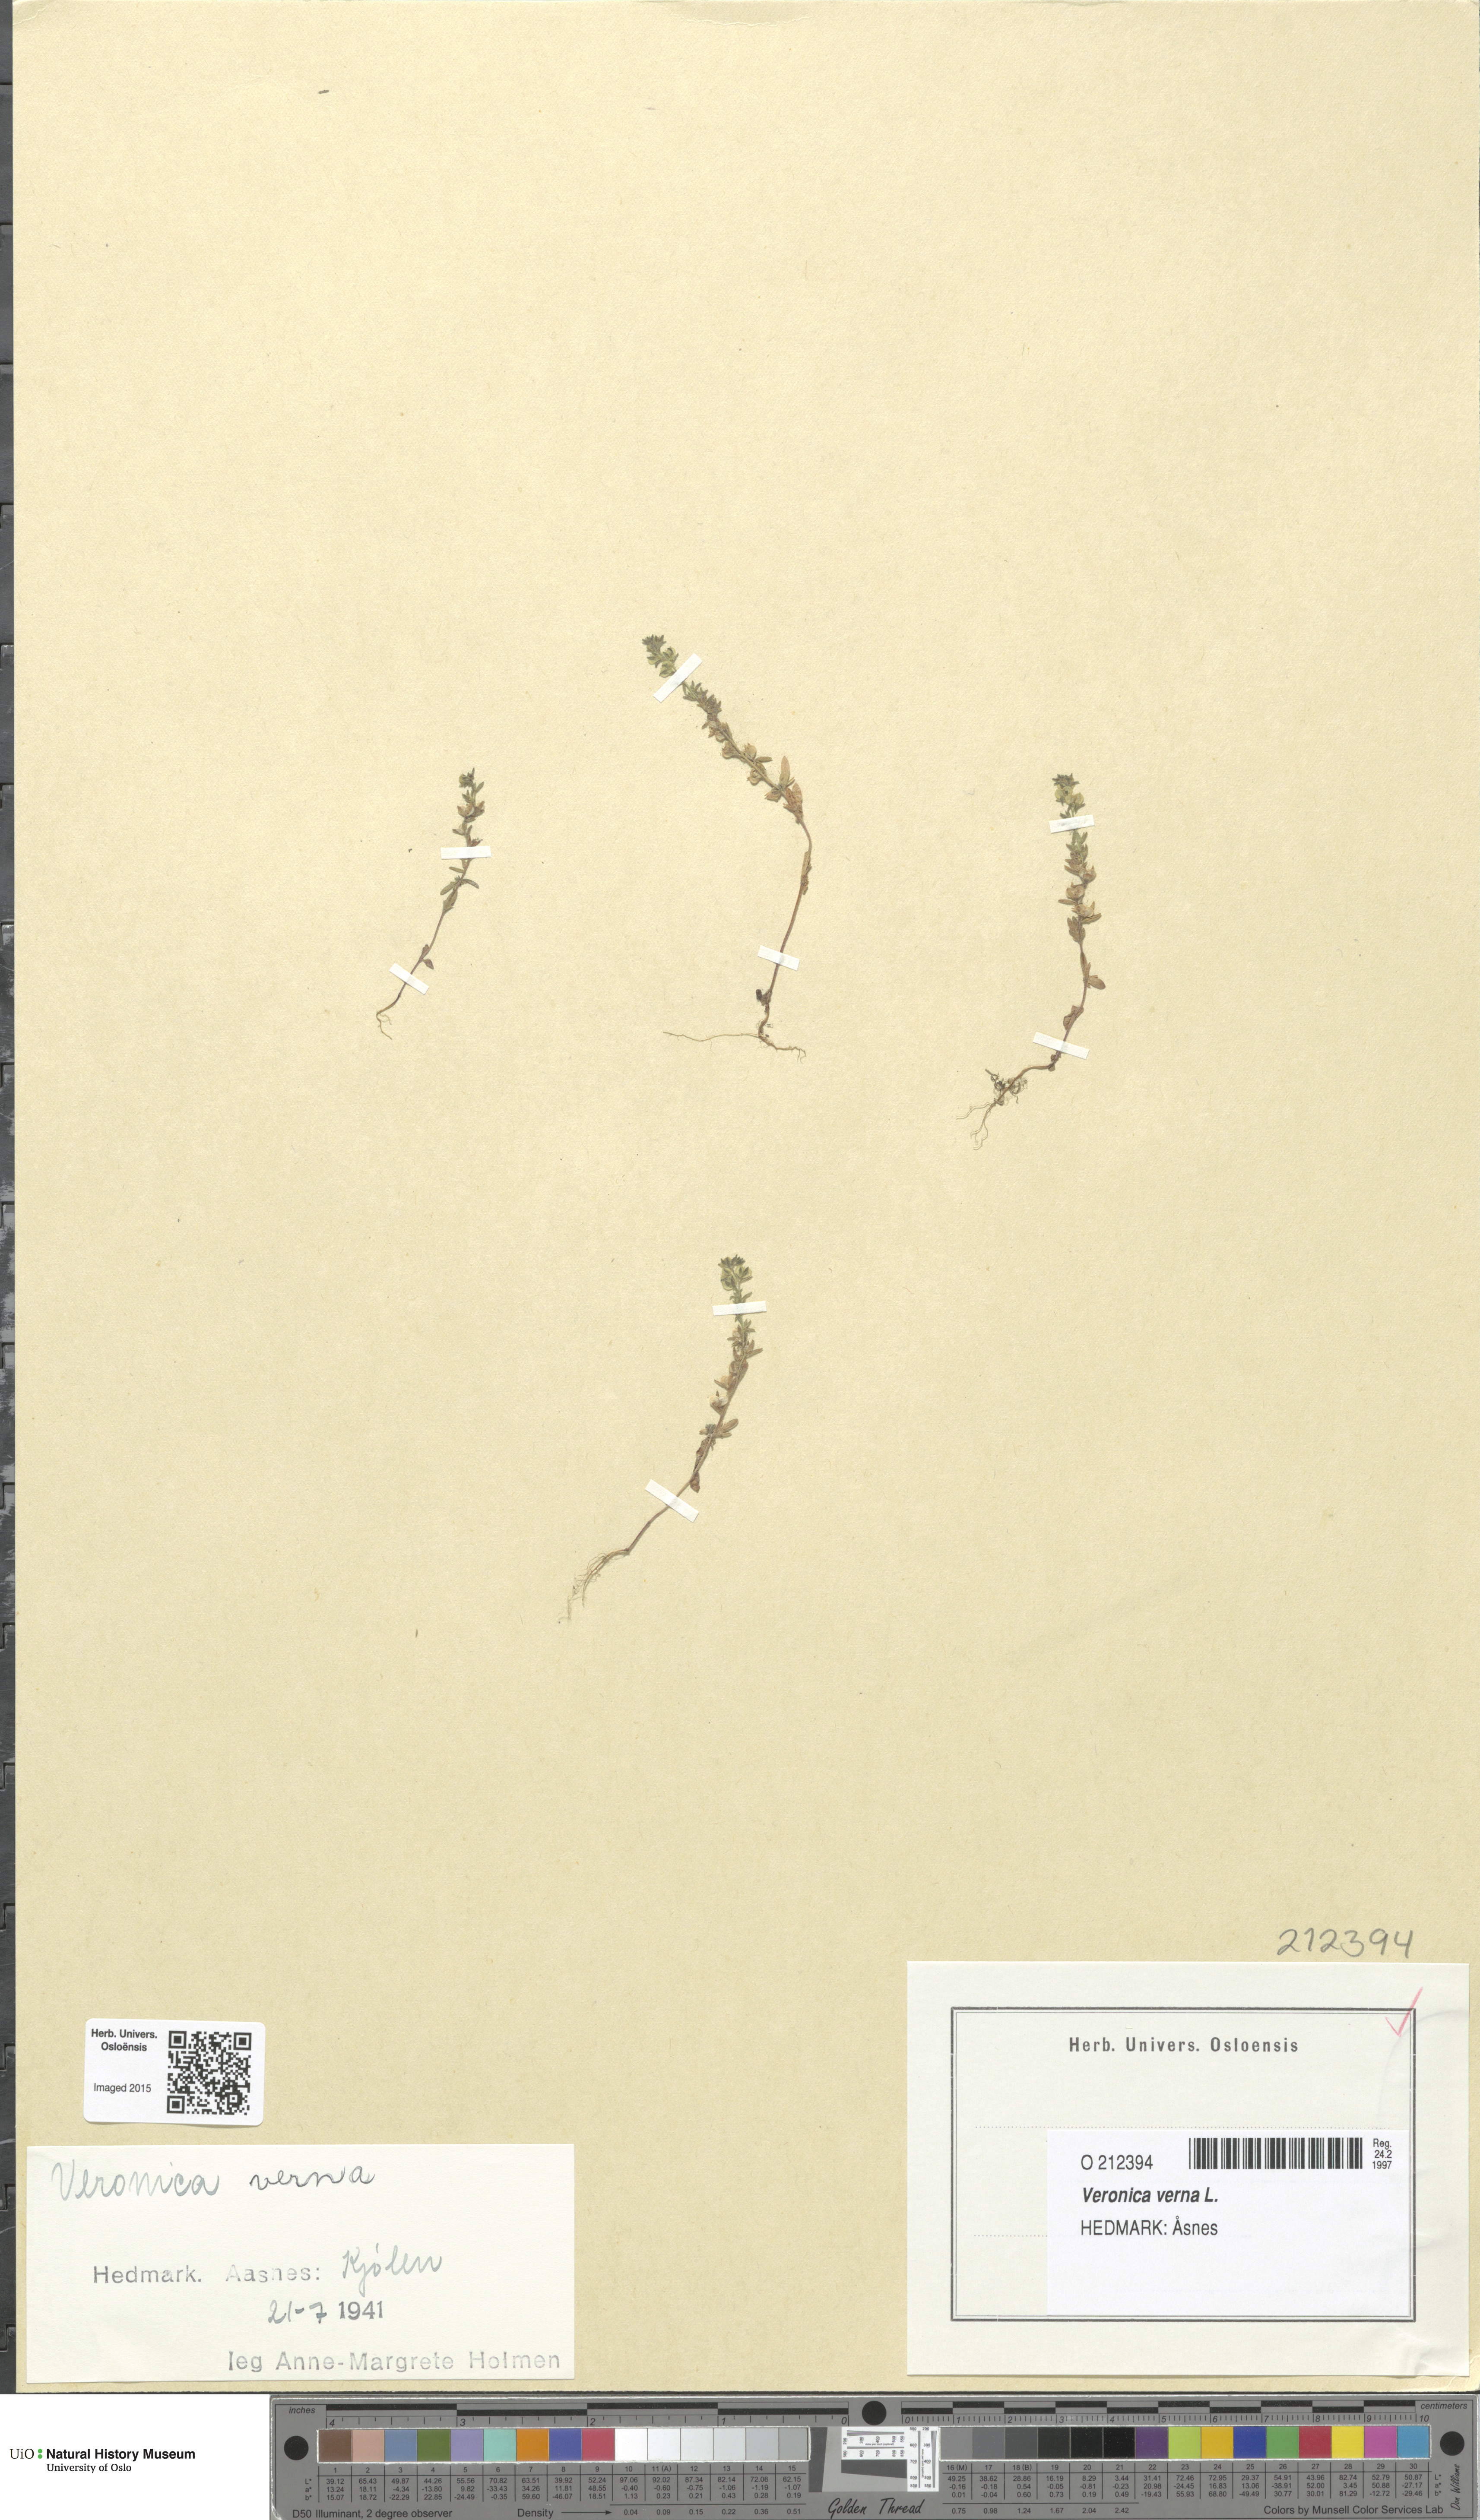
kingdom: Plantae
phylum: Tracheophyta
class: Magnoliopsida
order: Lamiales
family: Plantaginaceae
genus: Veronica
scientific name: Veronica verna
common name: Spring speedwell
